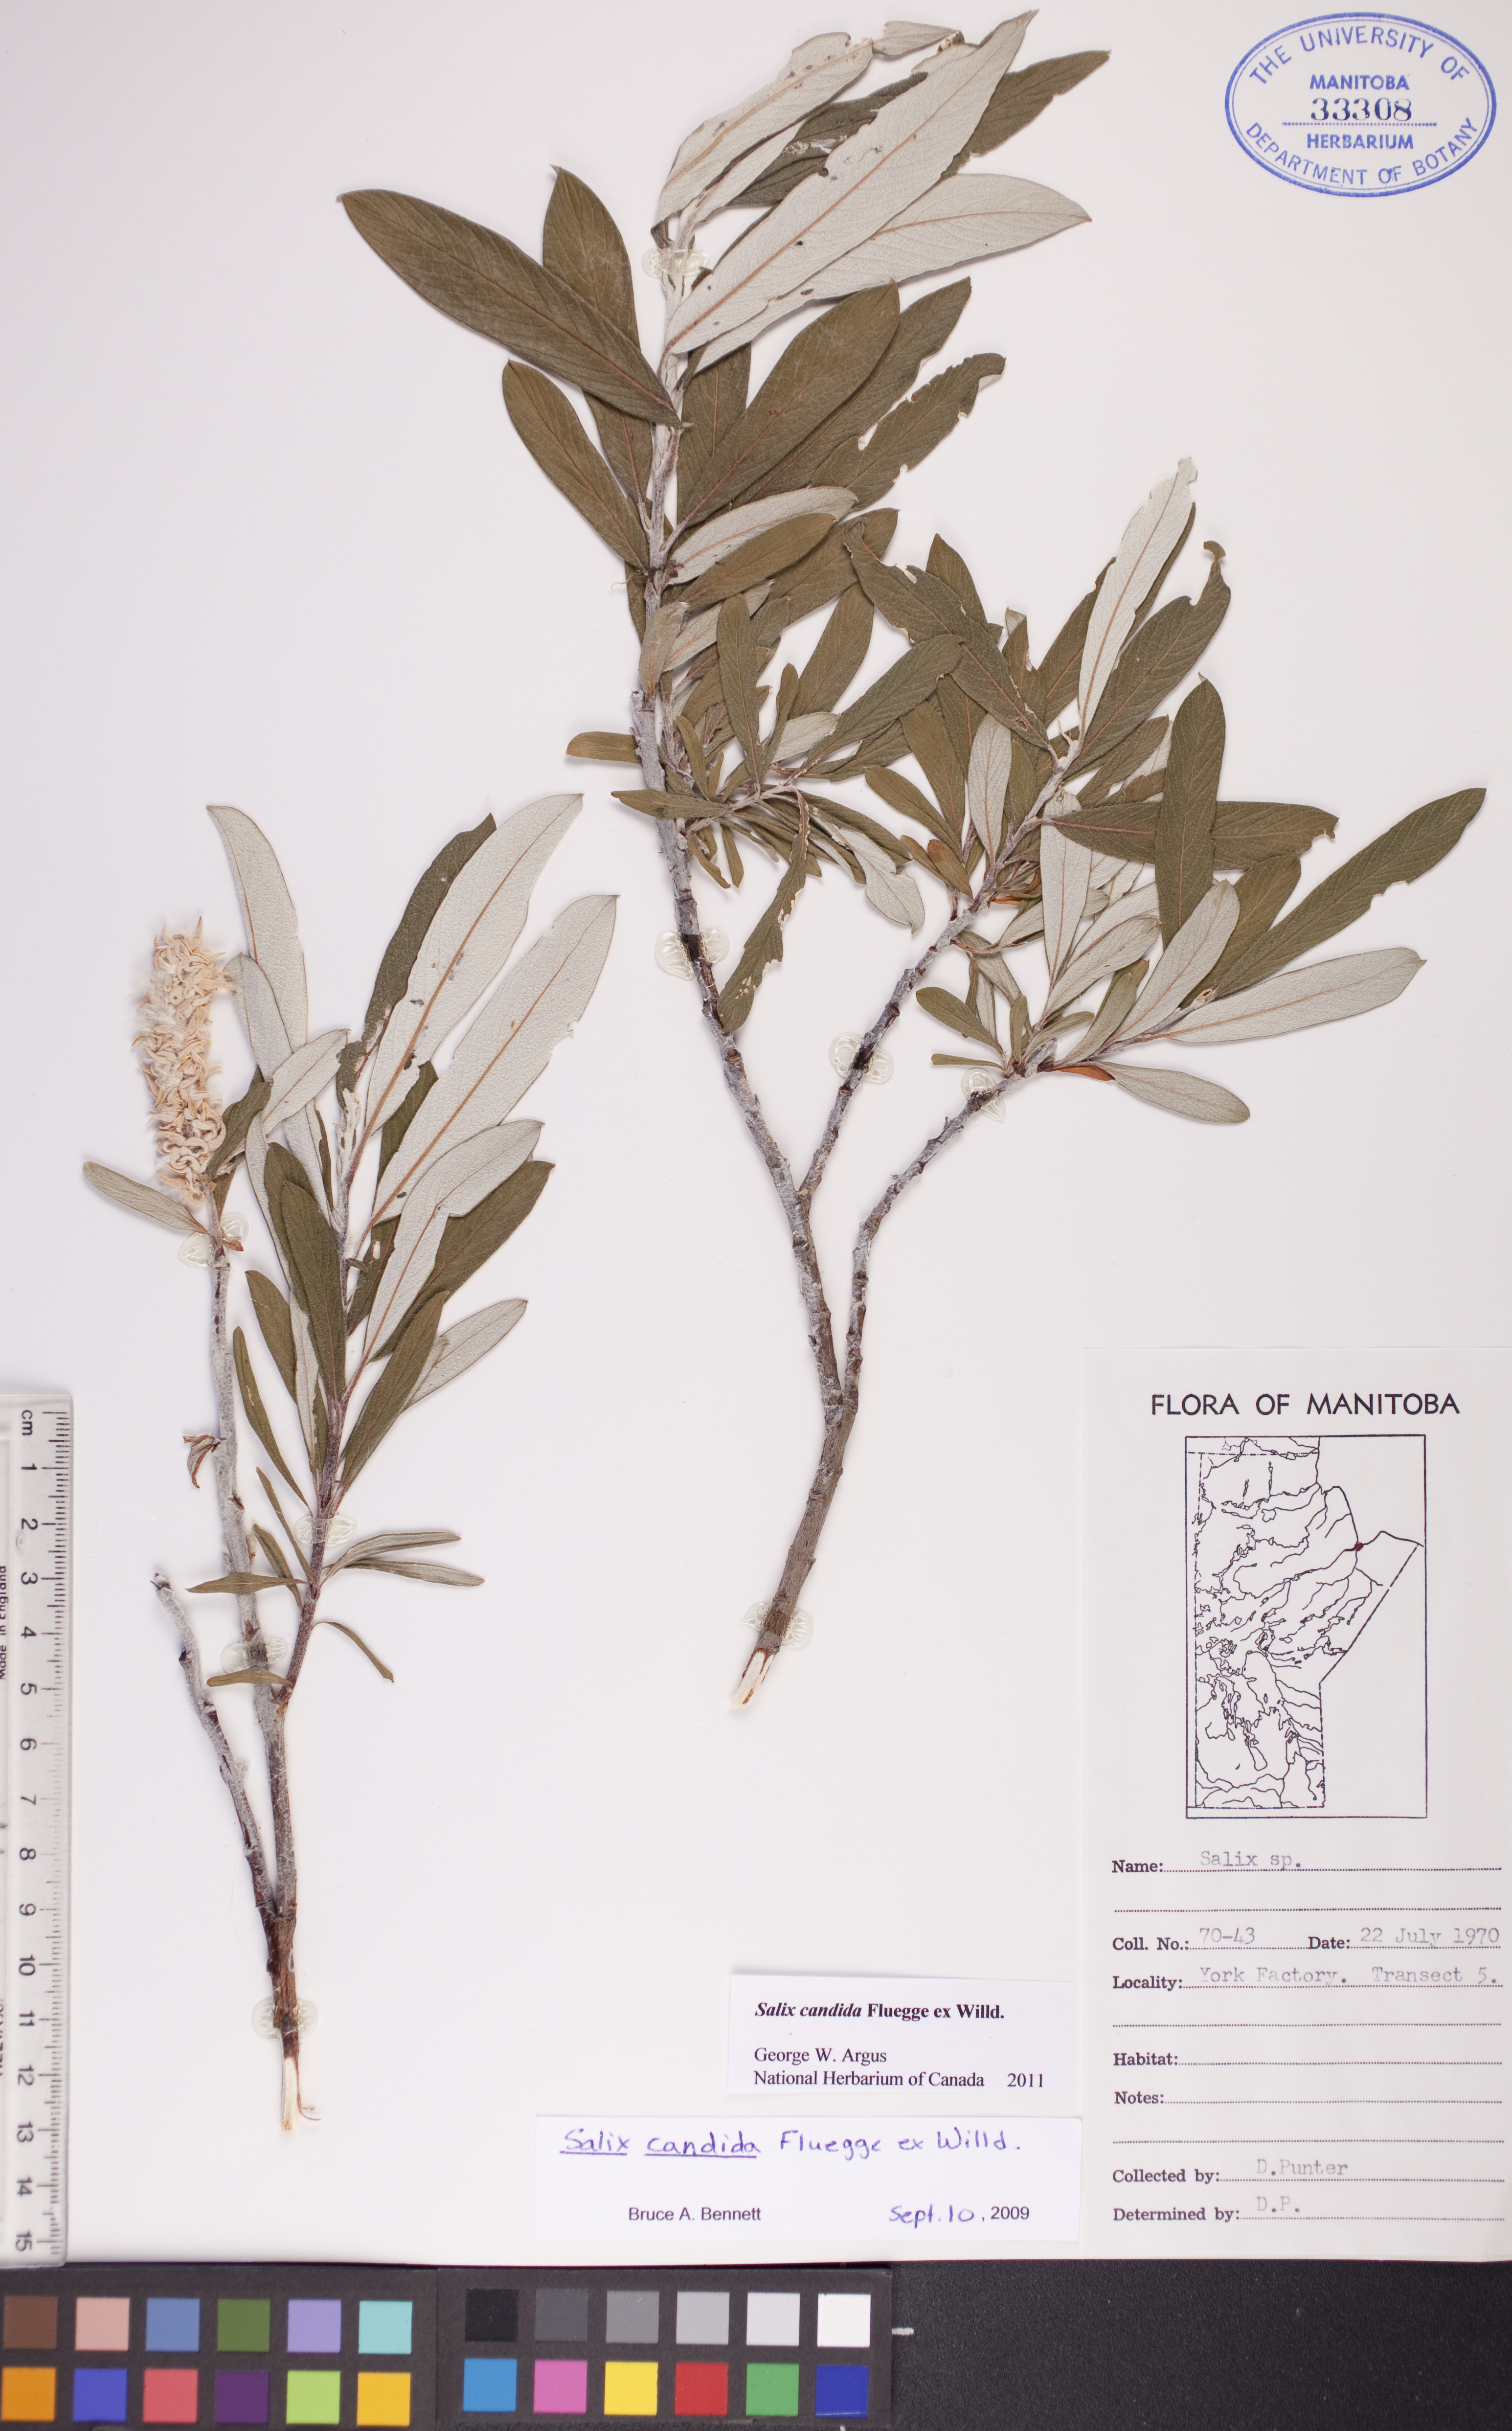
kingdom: Plantae
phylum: Tracheophyta
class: Magnoliopsida
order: Malpighiales
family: Salicaceae
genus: Salix
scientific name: Salix candida
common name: Hoary willow
